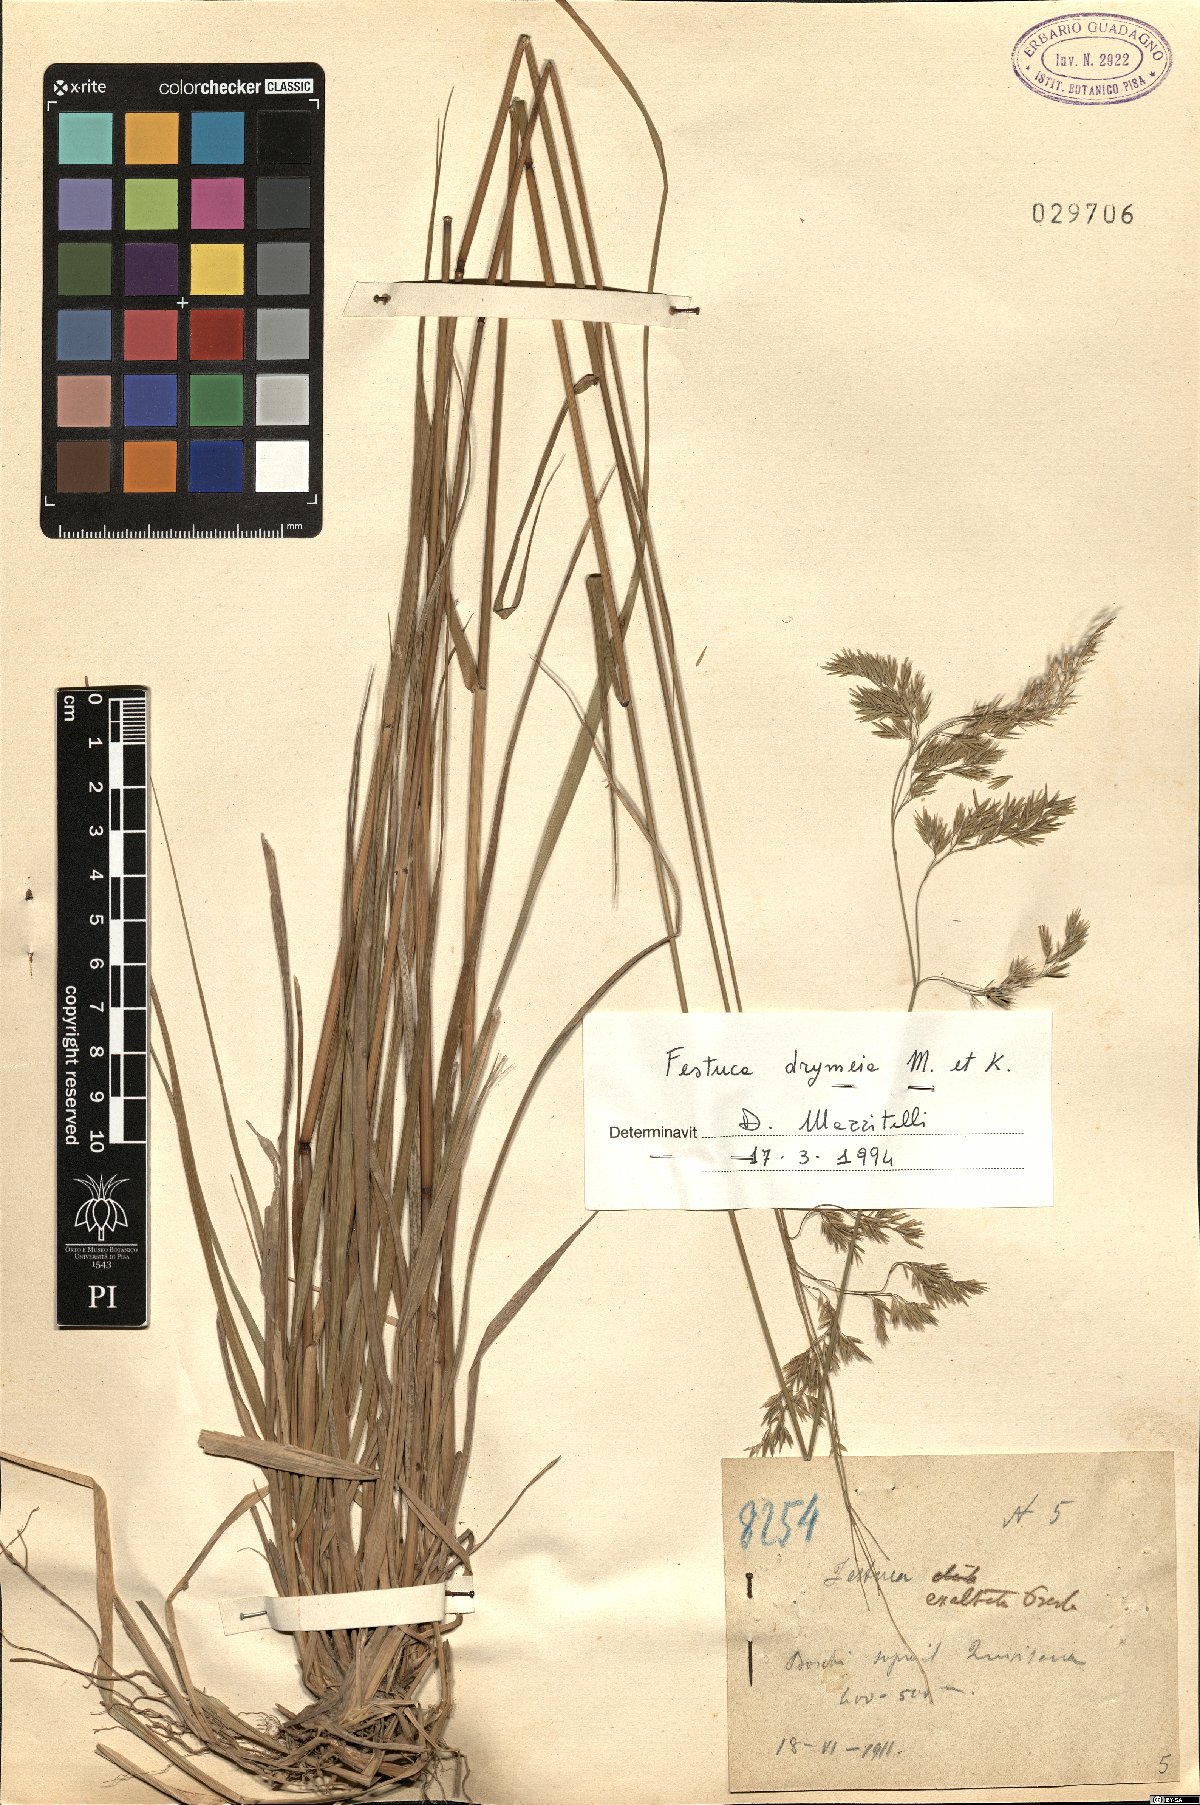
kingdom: Plantae
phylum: Tracheophyta
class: Liliopsida
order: Poales
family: Poaceae
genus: Festuca
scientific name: Festuca drymeja
